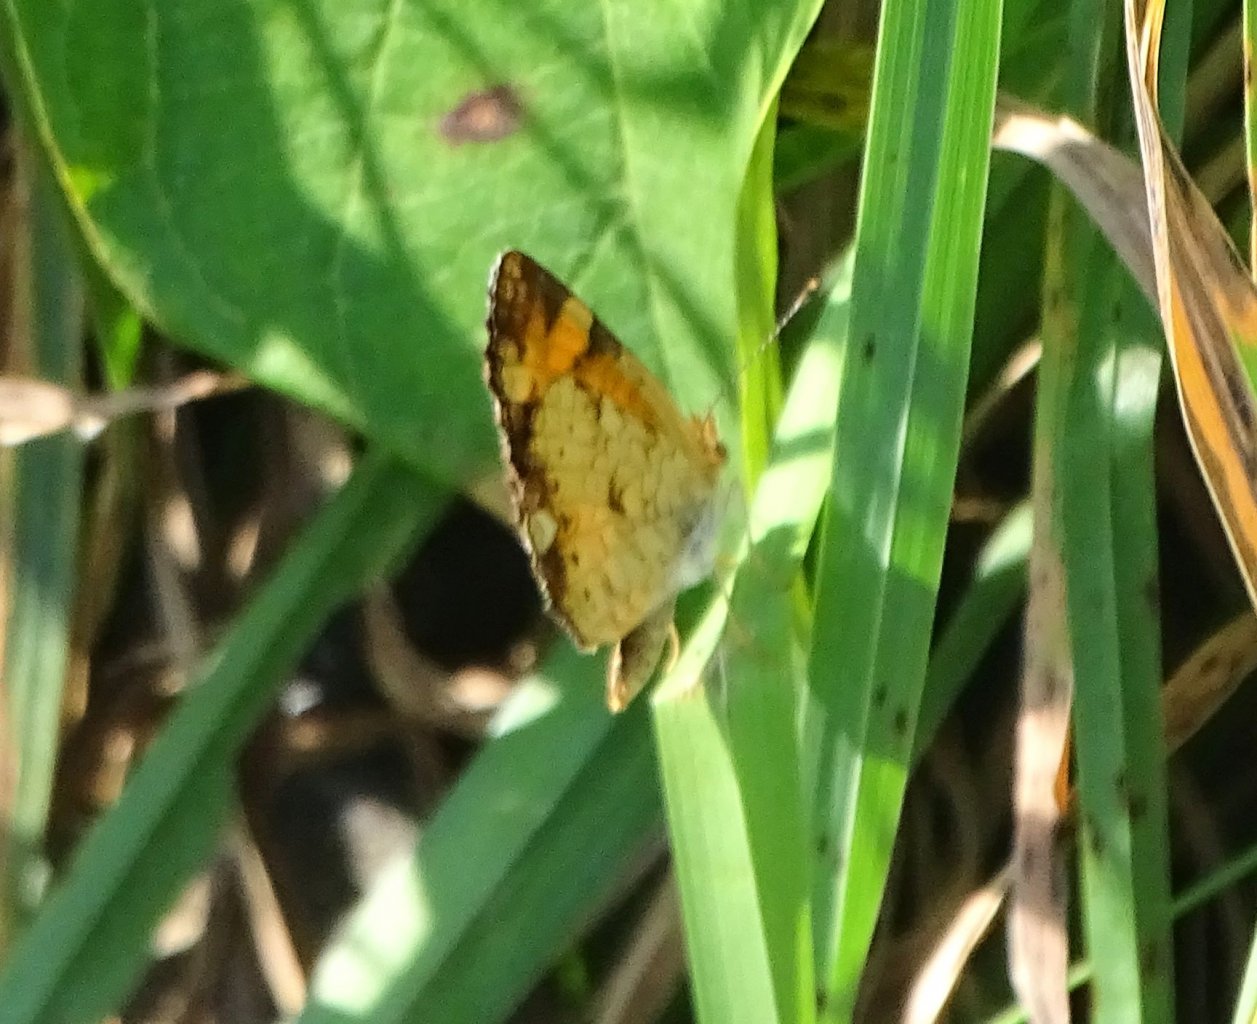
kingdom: Animalia
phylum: Arthropoda
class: Insecta
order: Lepidoptera
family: Nymphalidae
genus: Phyciodes
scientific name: Phyciodes
